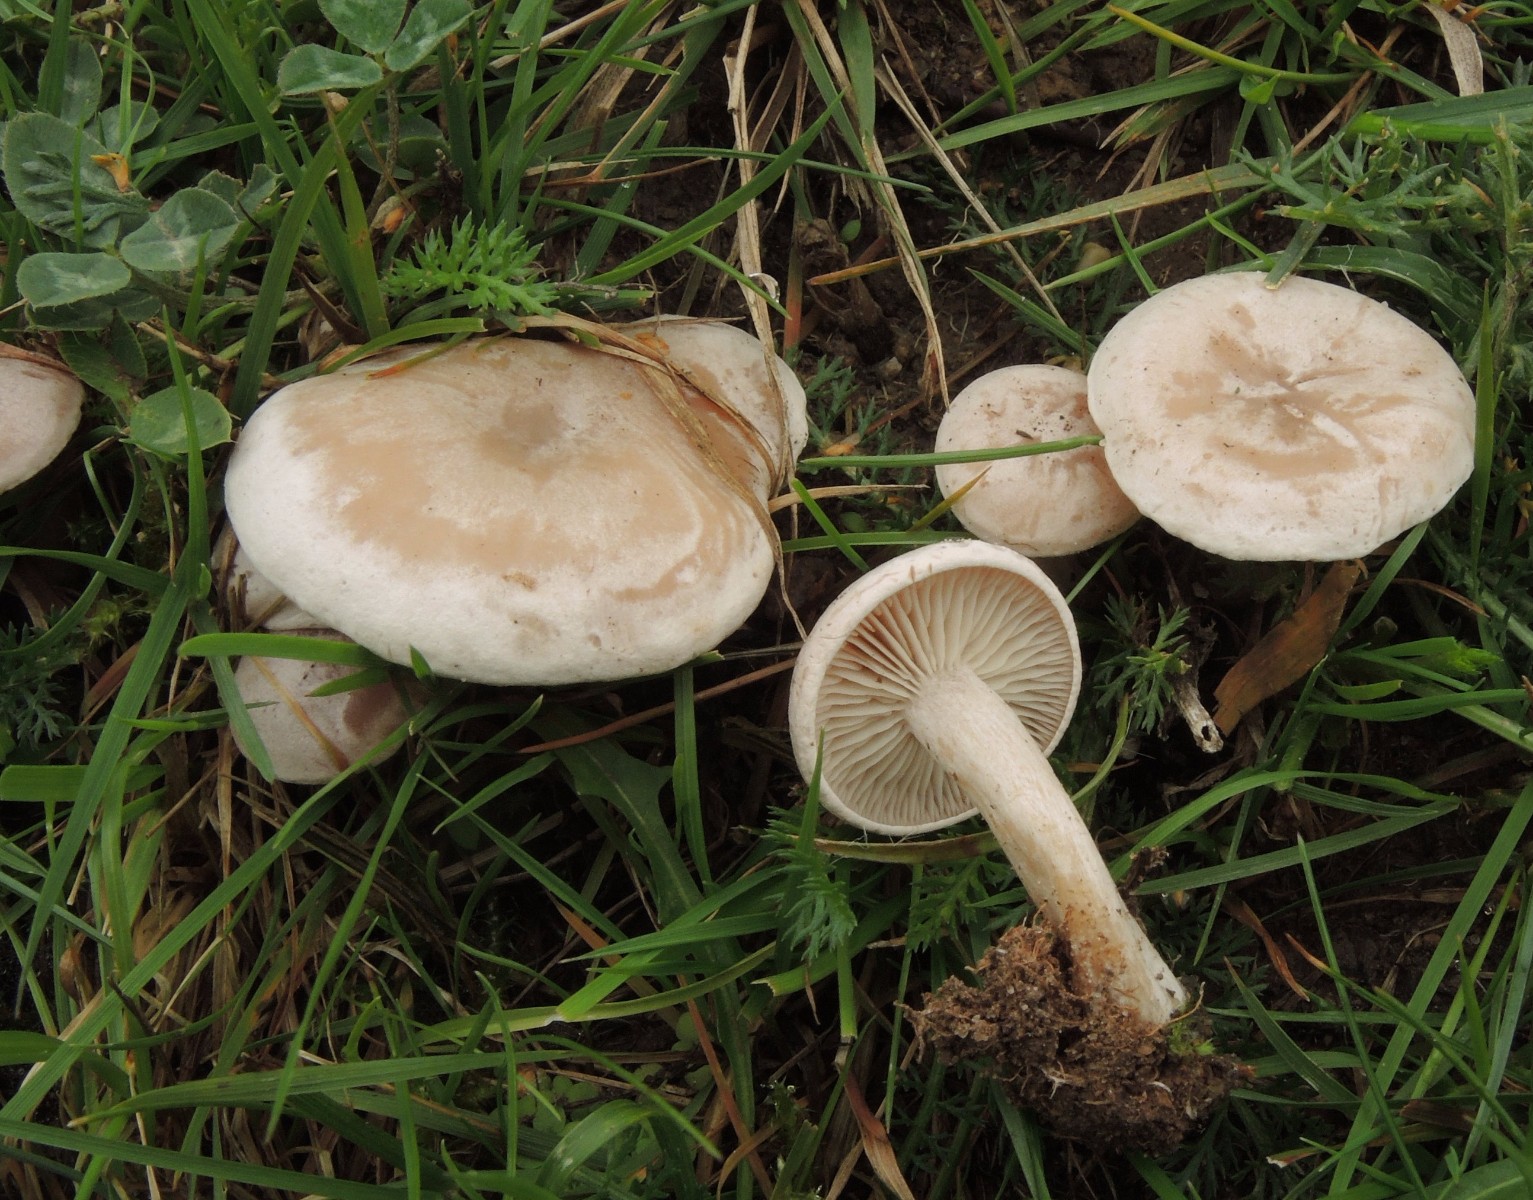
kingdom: Fungi
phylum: Basidiomycota
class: Agaricomycetes
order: Agaricales
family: Tricholomataceae
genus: Clitocybe
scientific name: Clitocybe rivulosa
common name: eng-tragthat
